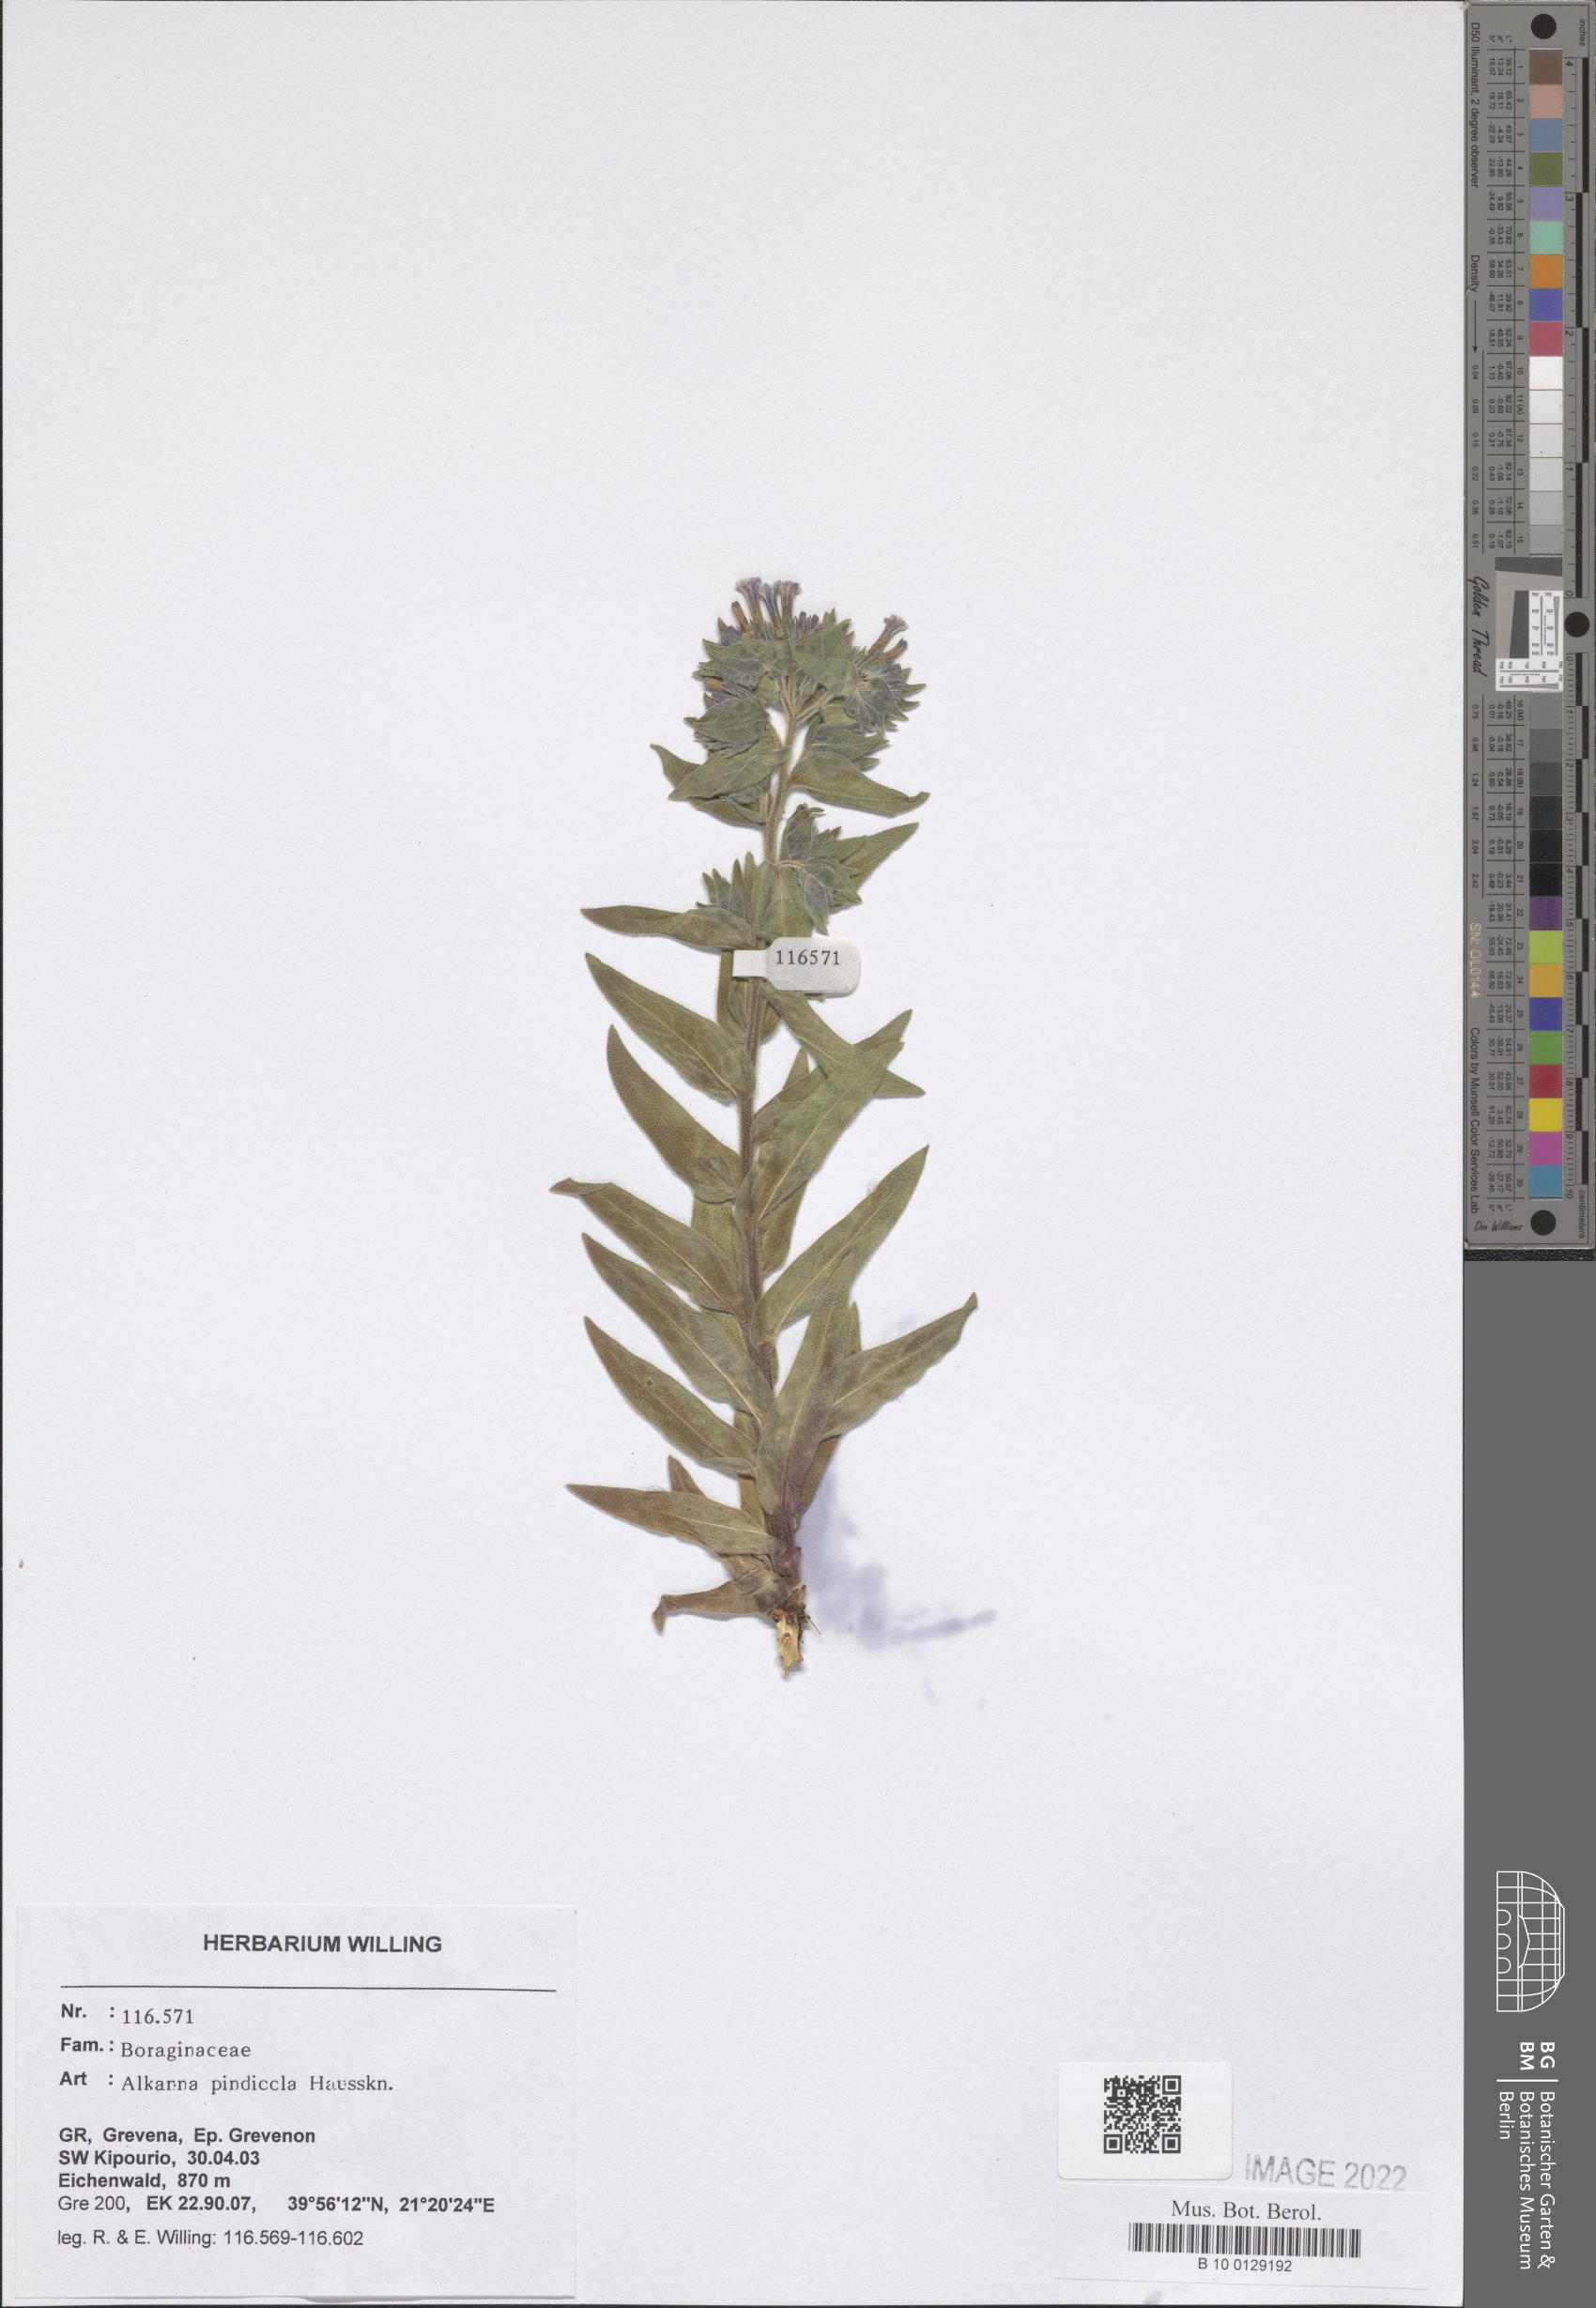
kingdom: Plantae
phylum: Tracheophyta
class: Magnoliopsida
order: Boraginales
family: Boraginaceae
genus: Alkanna
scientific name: Alkanna pindicola
